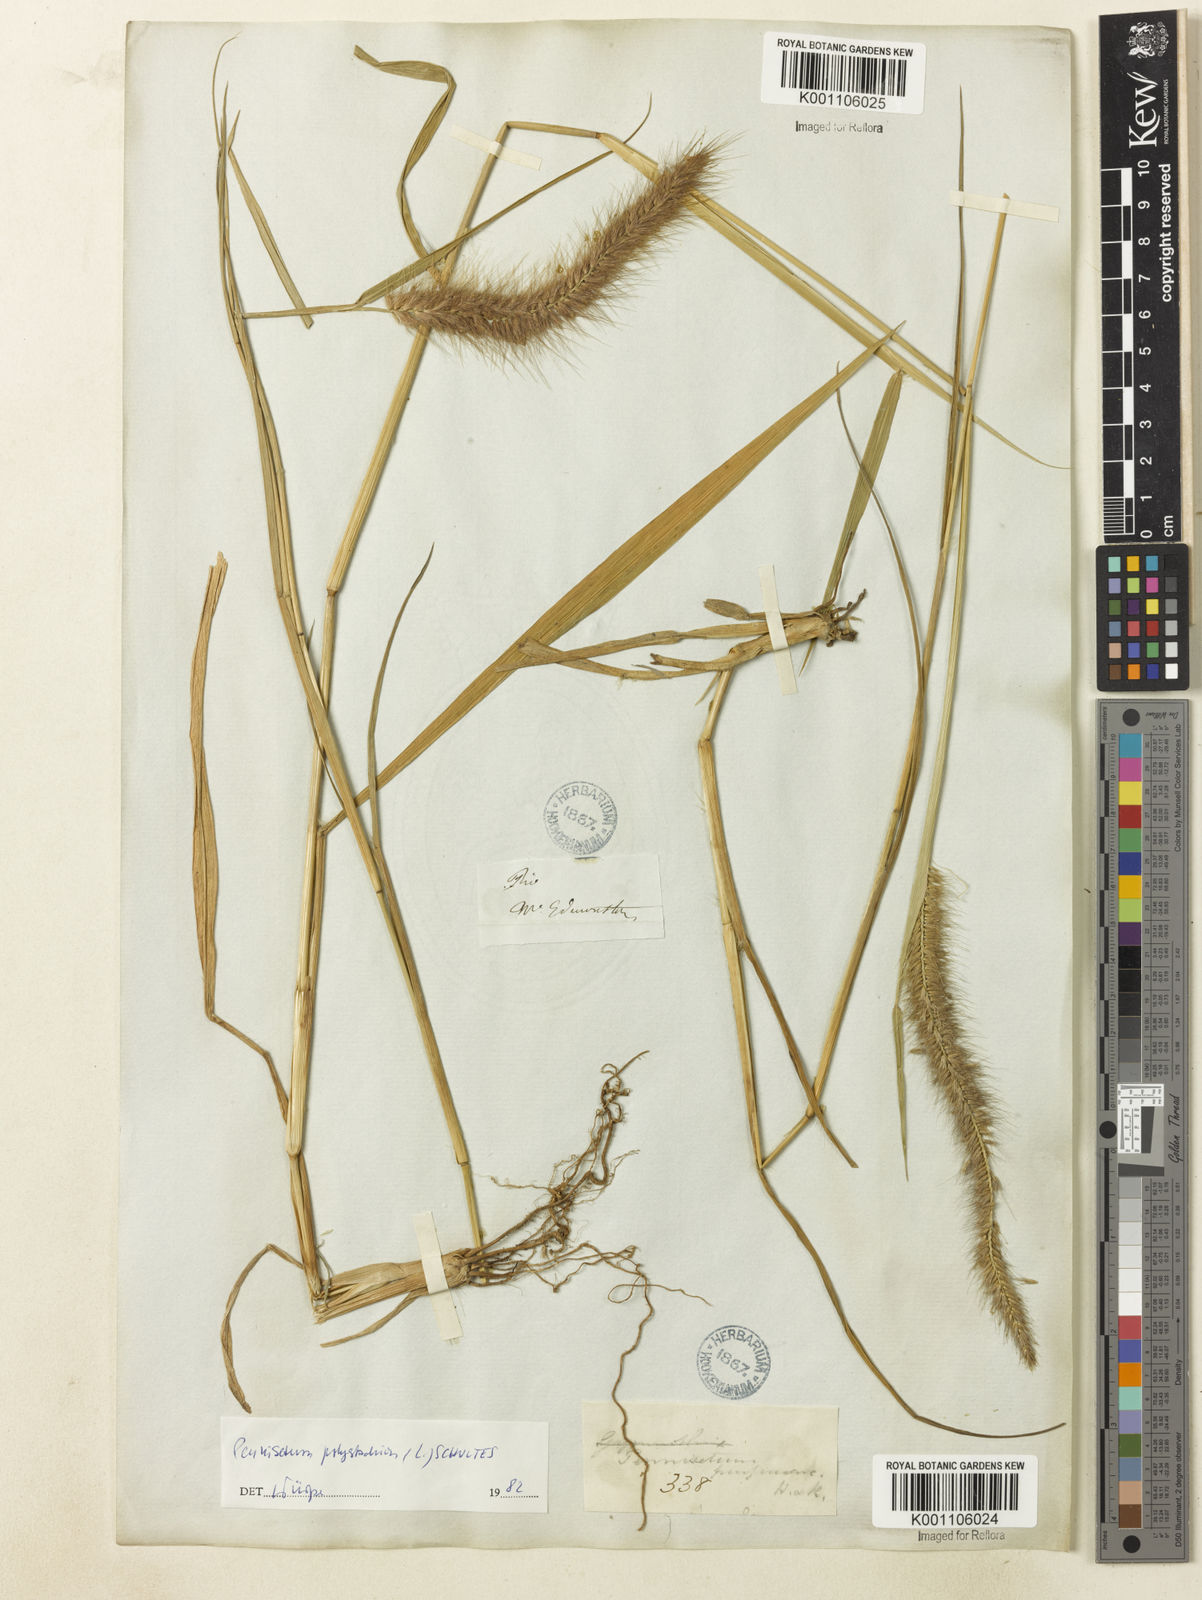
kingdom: Plantae
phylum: Tracheophyta
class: Liliopsida
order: Poales
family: Poaceae
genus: Setaria
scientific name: Setaria parviflora
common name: Knotroot bristle-grass
